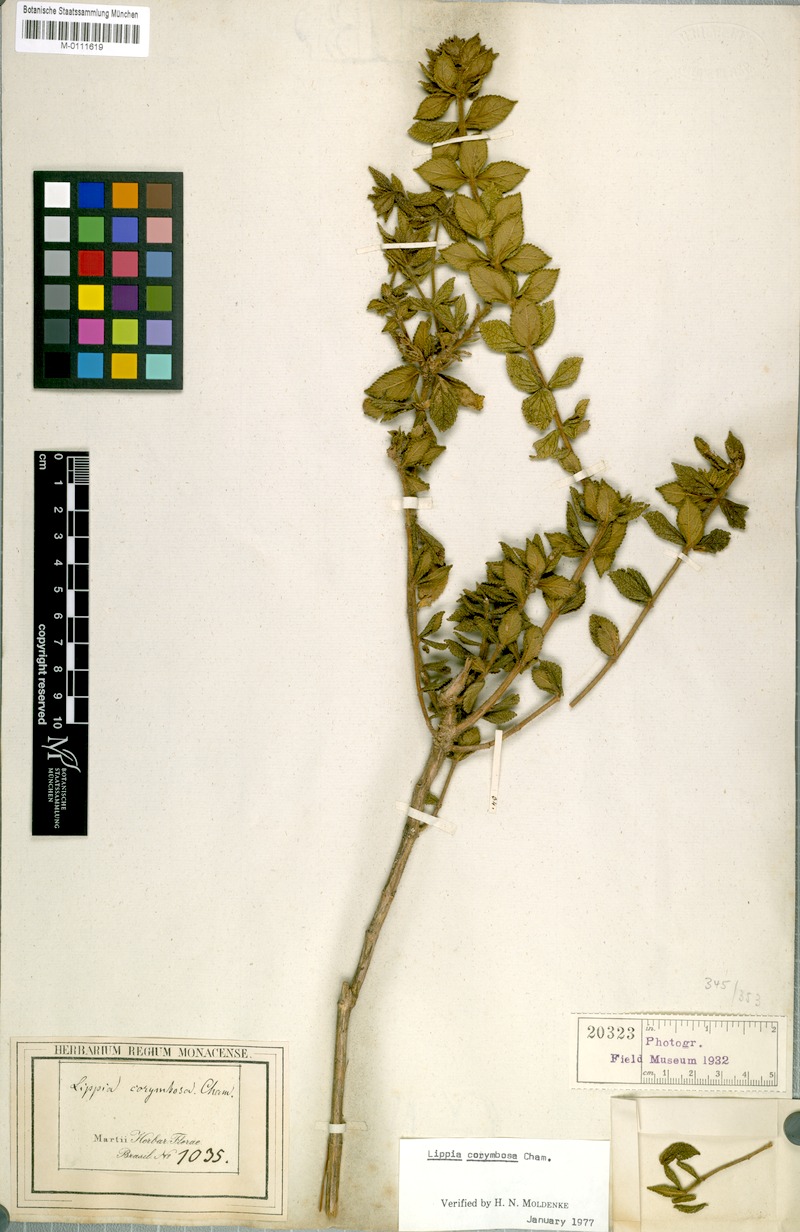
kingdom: Plantae
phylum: Tracheophyta
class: Magnoliopsida
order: Lamiales
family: Verbenaceae
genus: Lippia
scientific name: Lippia corymbosa
